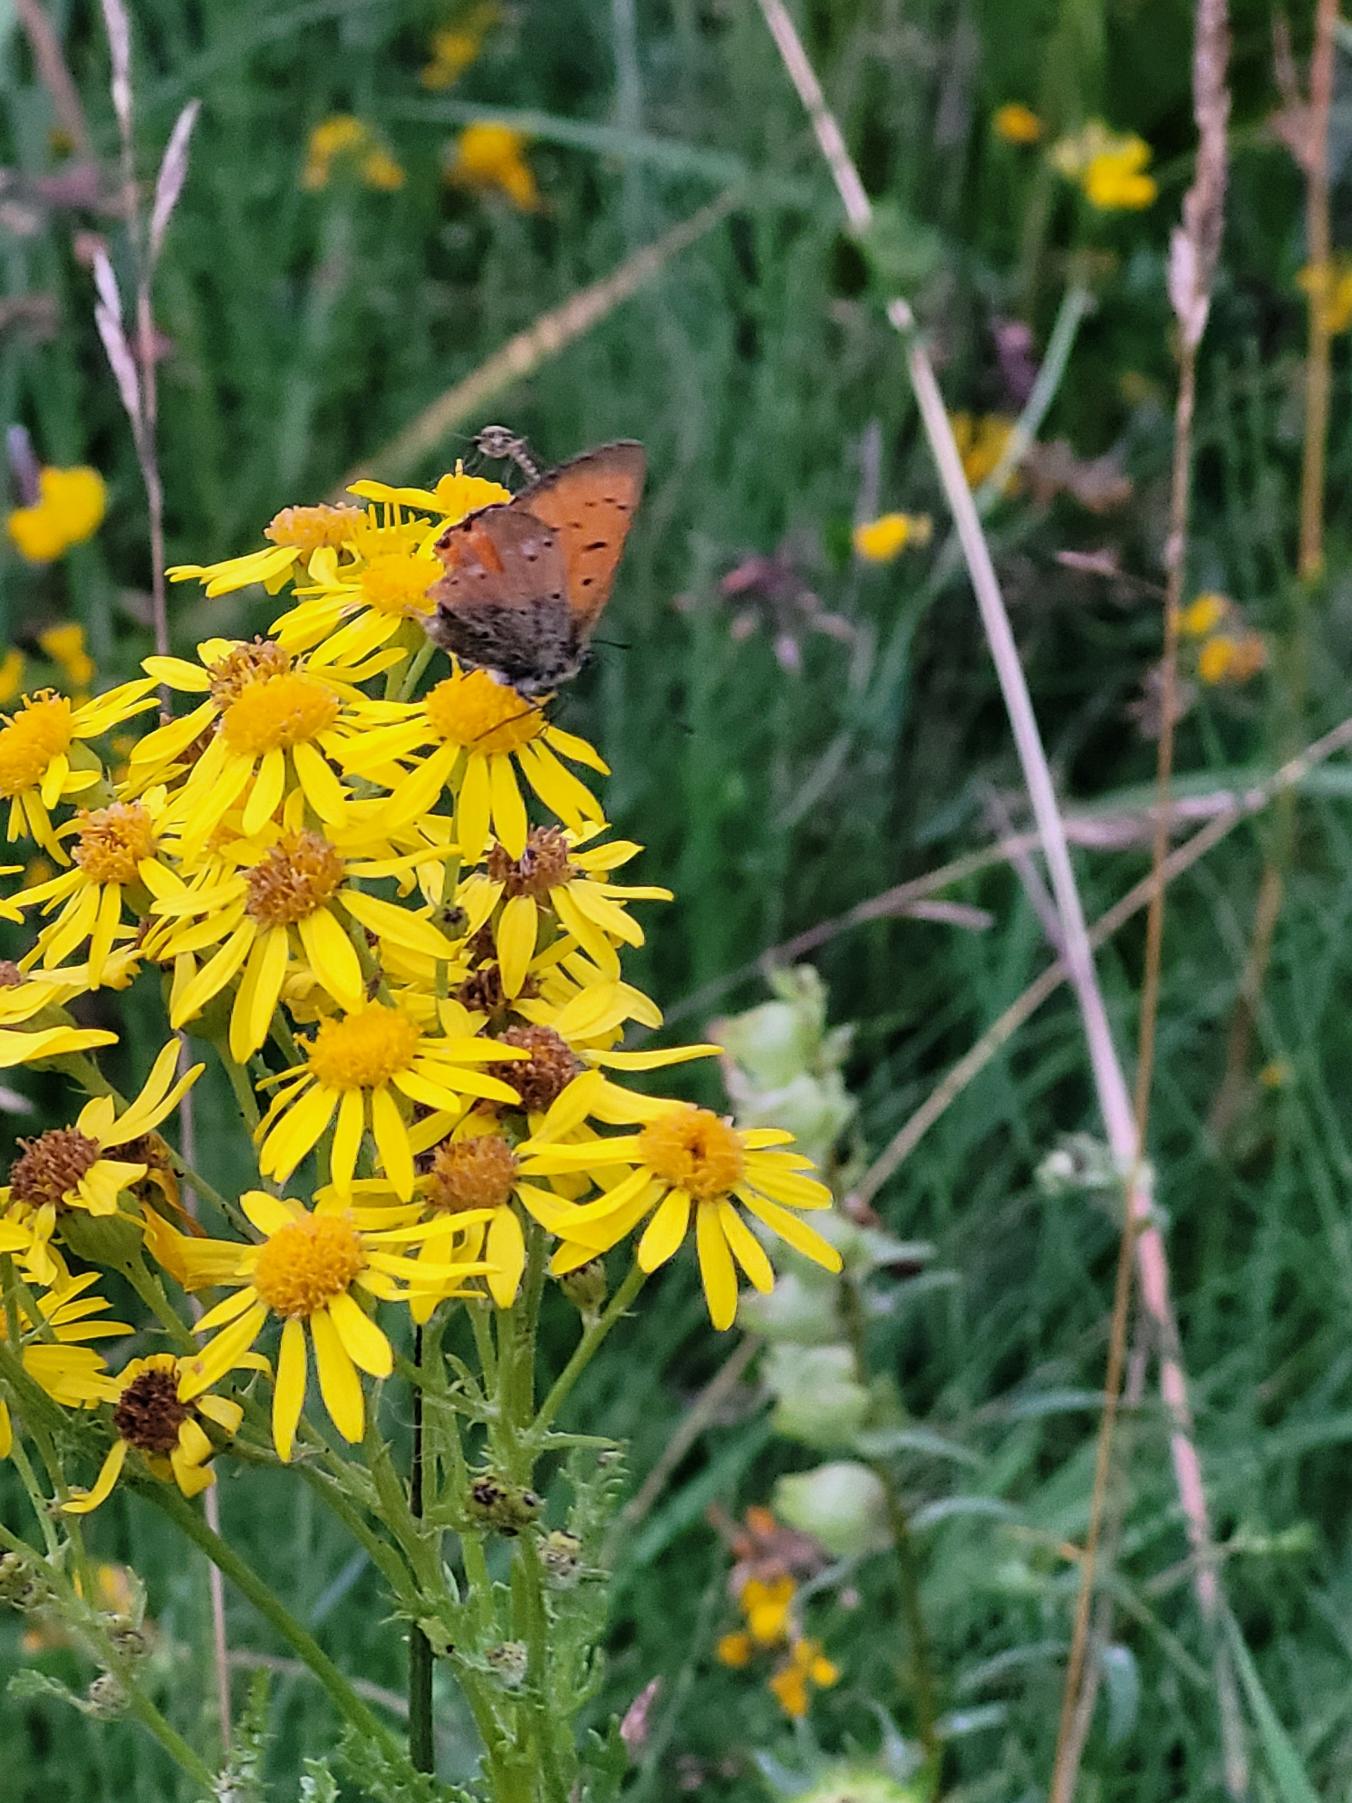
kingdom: Animalia
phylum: Arthropoda
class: Insecta
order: Lepidoptera
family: Lycaenidae
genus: Lycaena
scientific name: Lycaena virgaureae
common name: Dukatsommerfugl
